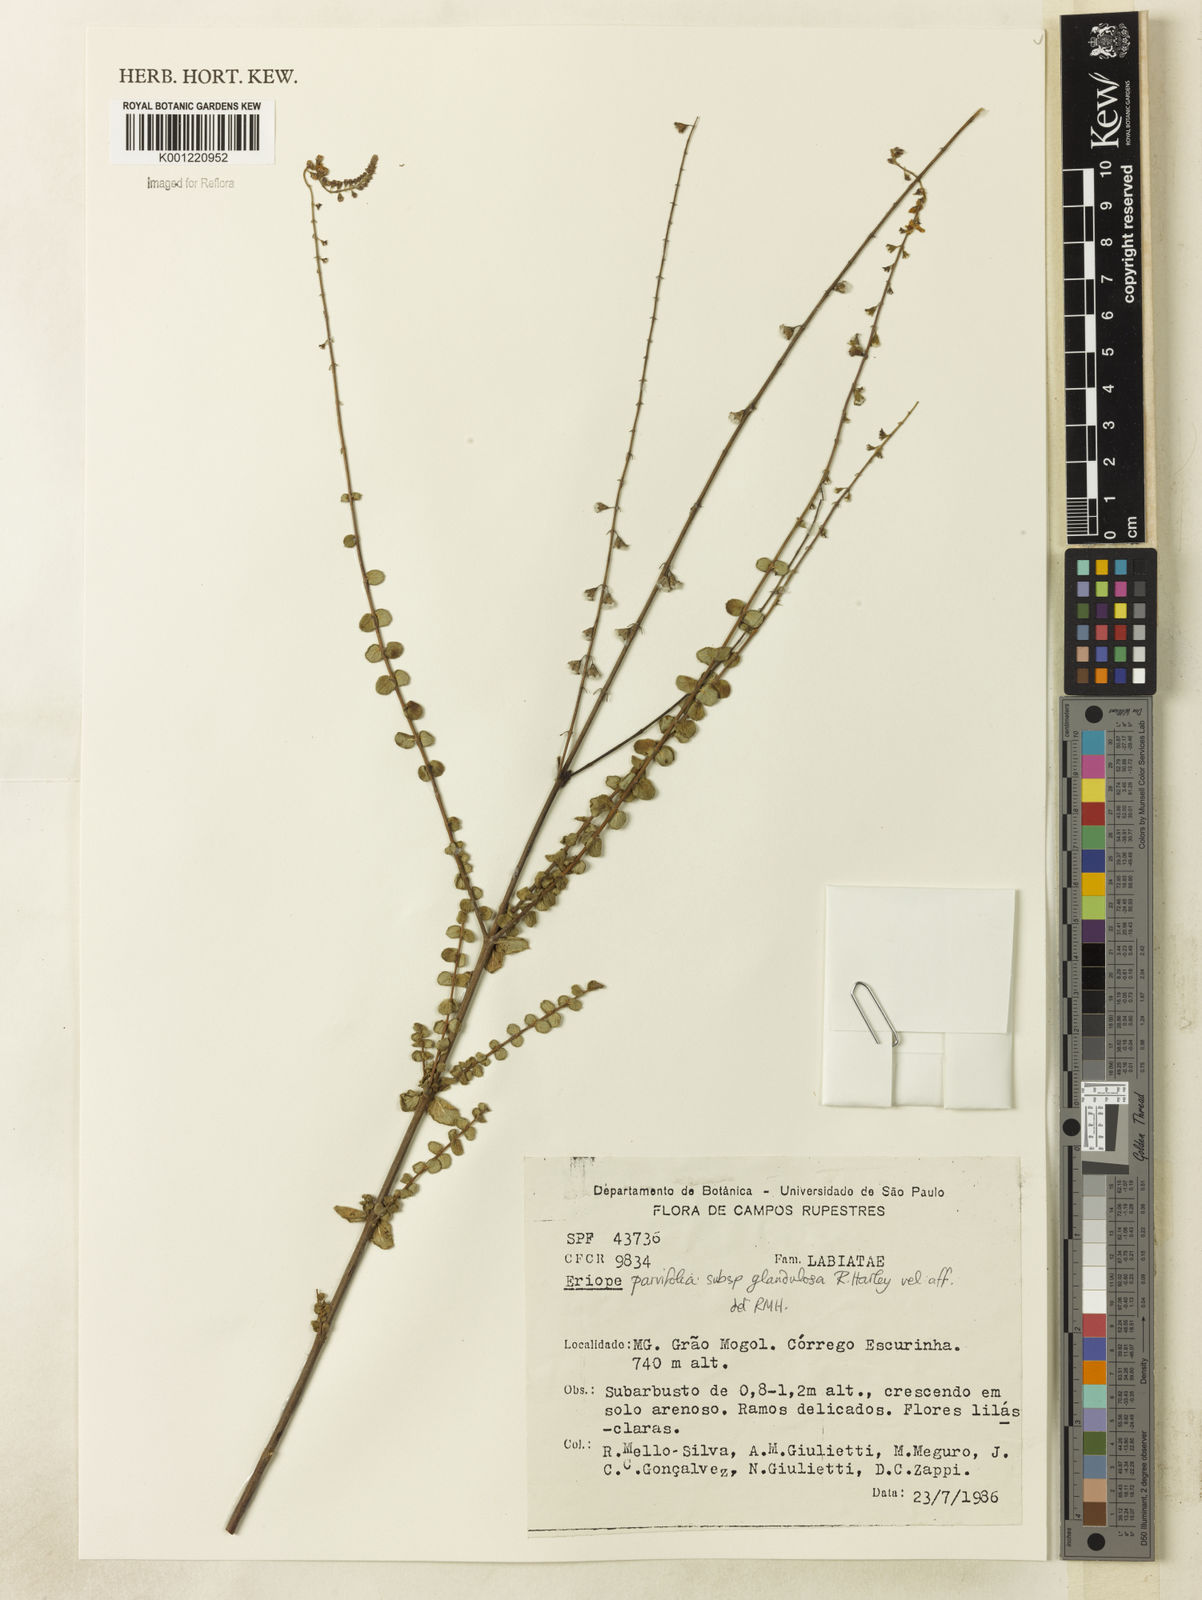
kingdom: Plantae
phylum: Tracheophyta
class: Magnoliopsida
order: Lamiales
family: Lamiaceae
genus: Eriope
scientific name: Eriope glandulosa
